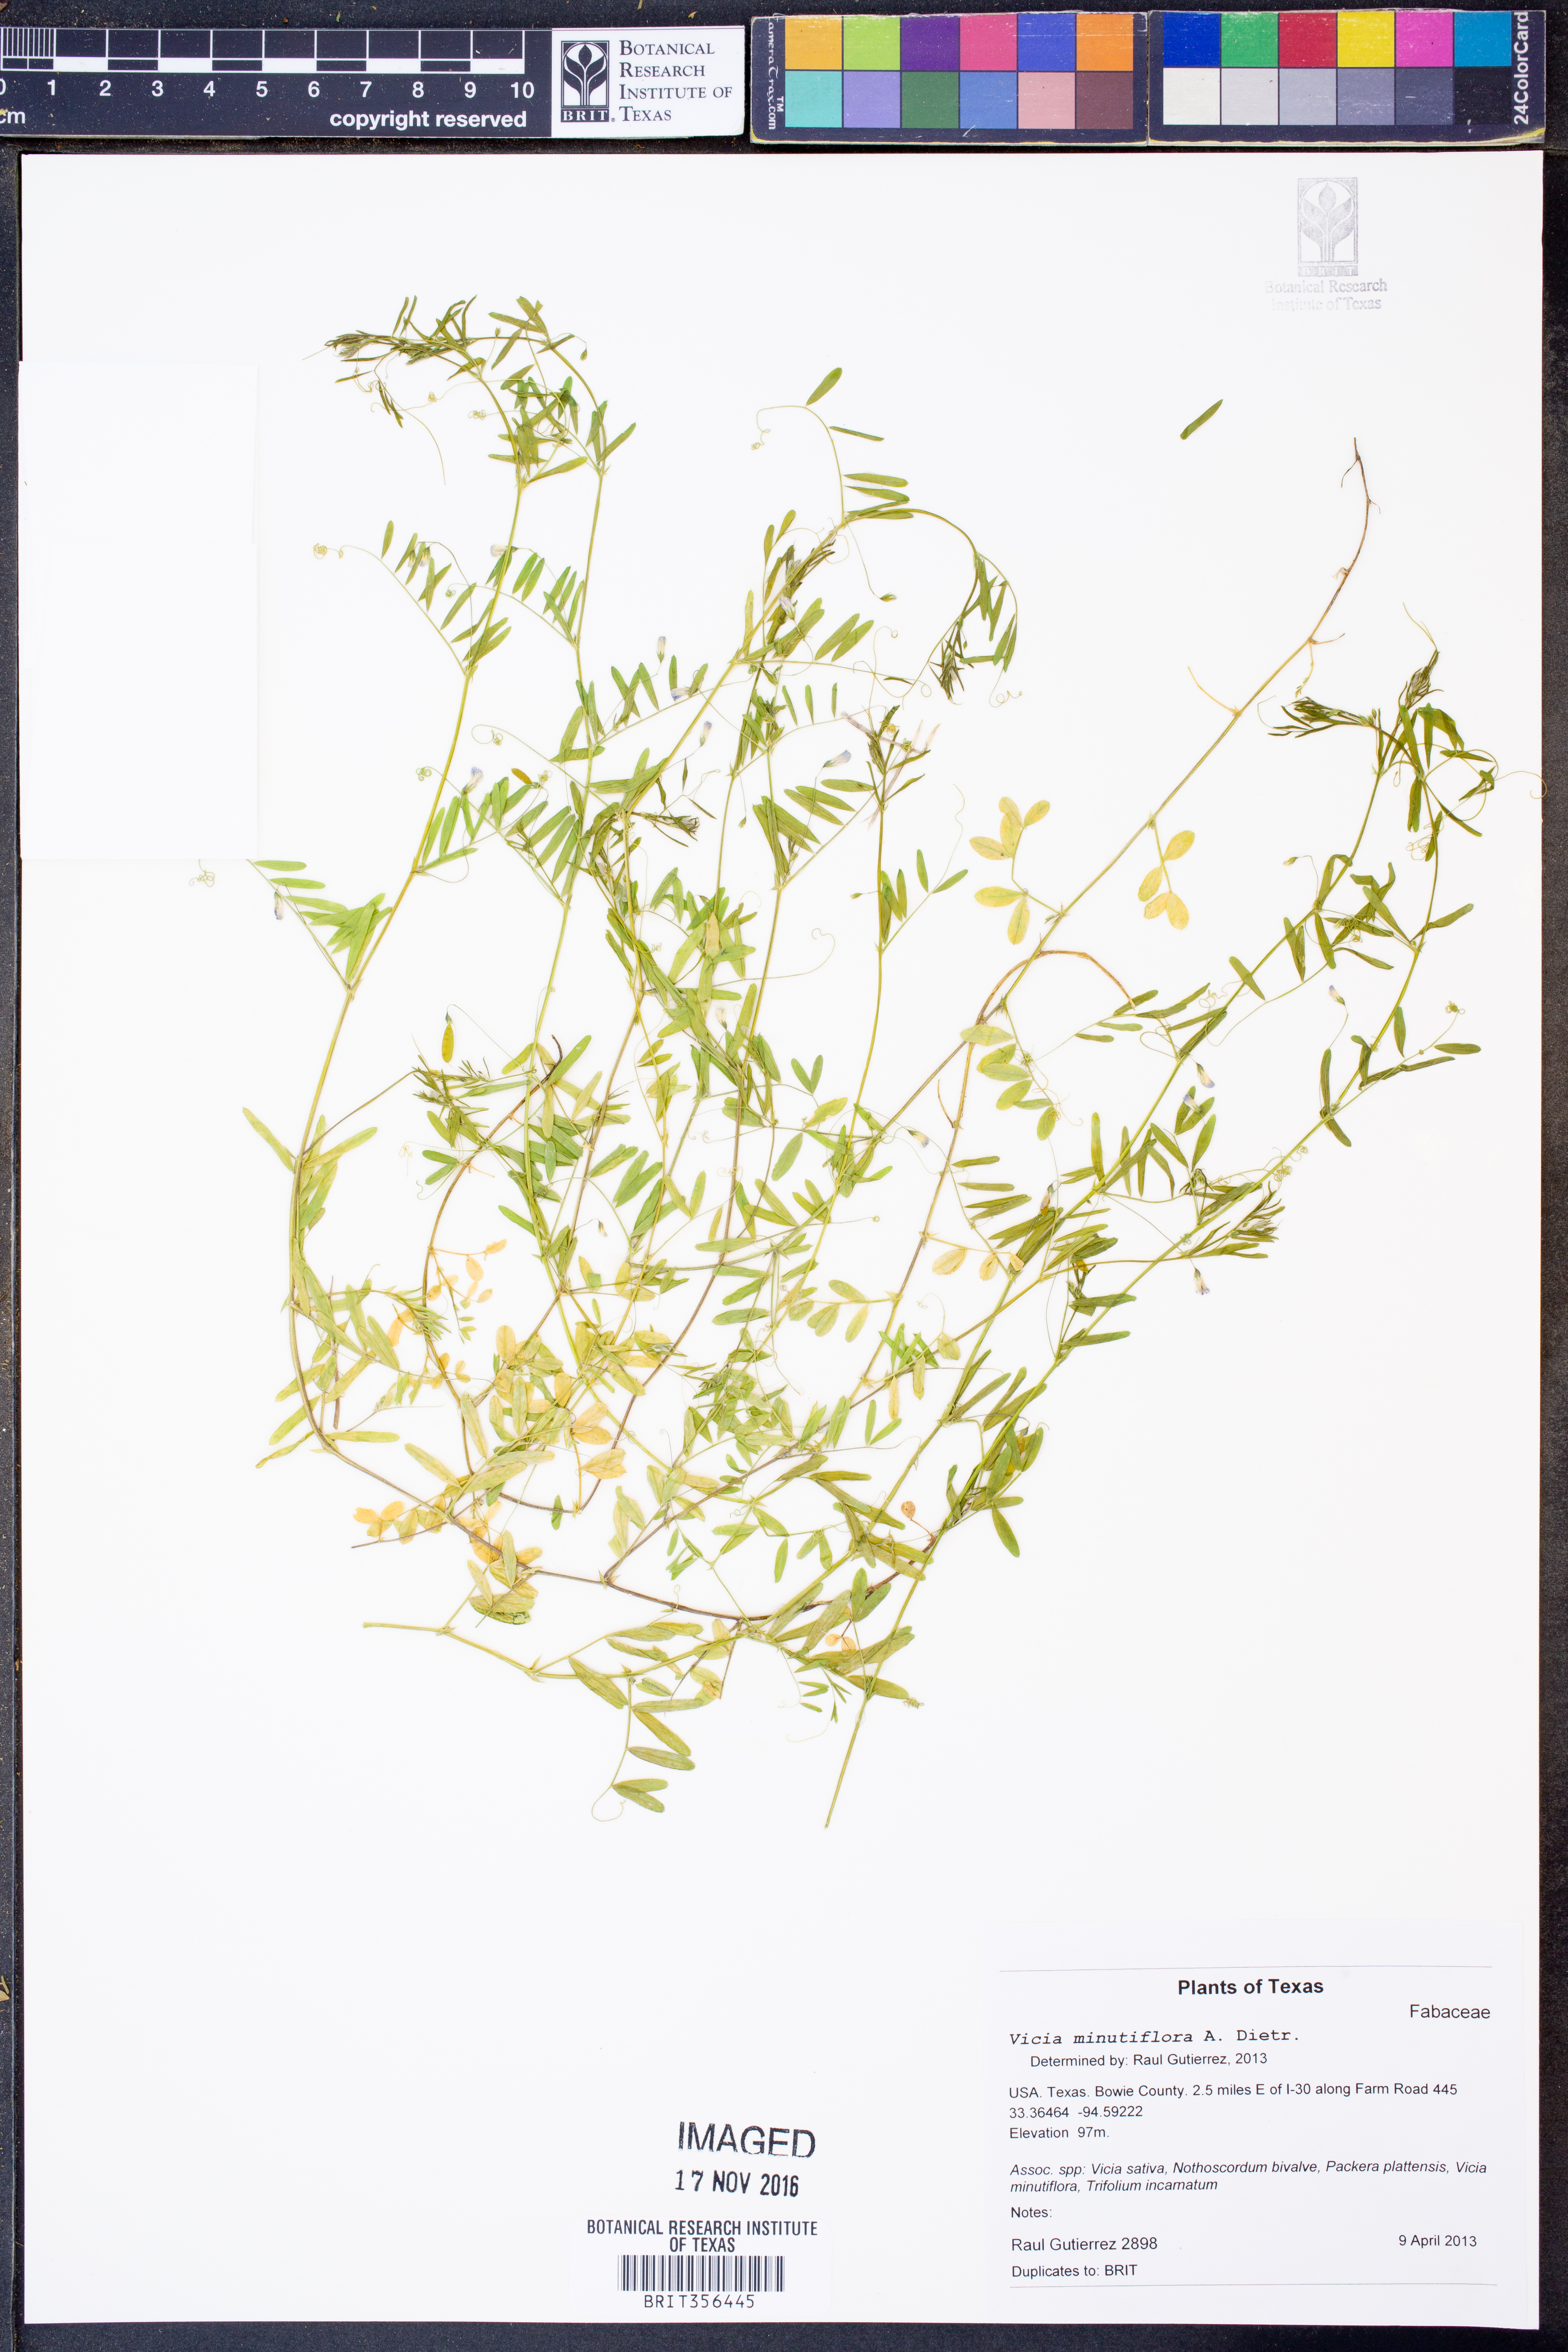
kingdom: Plantae
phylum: Tracheophyta
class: Magnoliopsida
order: Fabales
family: Fabaceae
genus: Vicia
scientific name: Vicia minutiflora
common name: Pygmy-flower vetch
